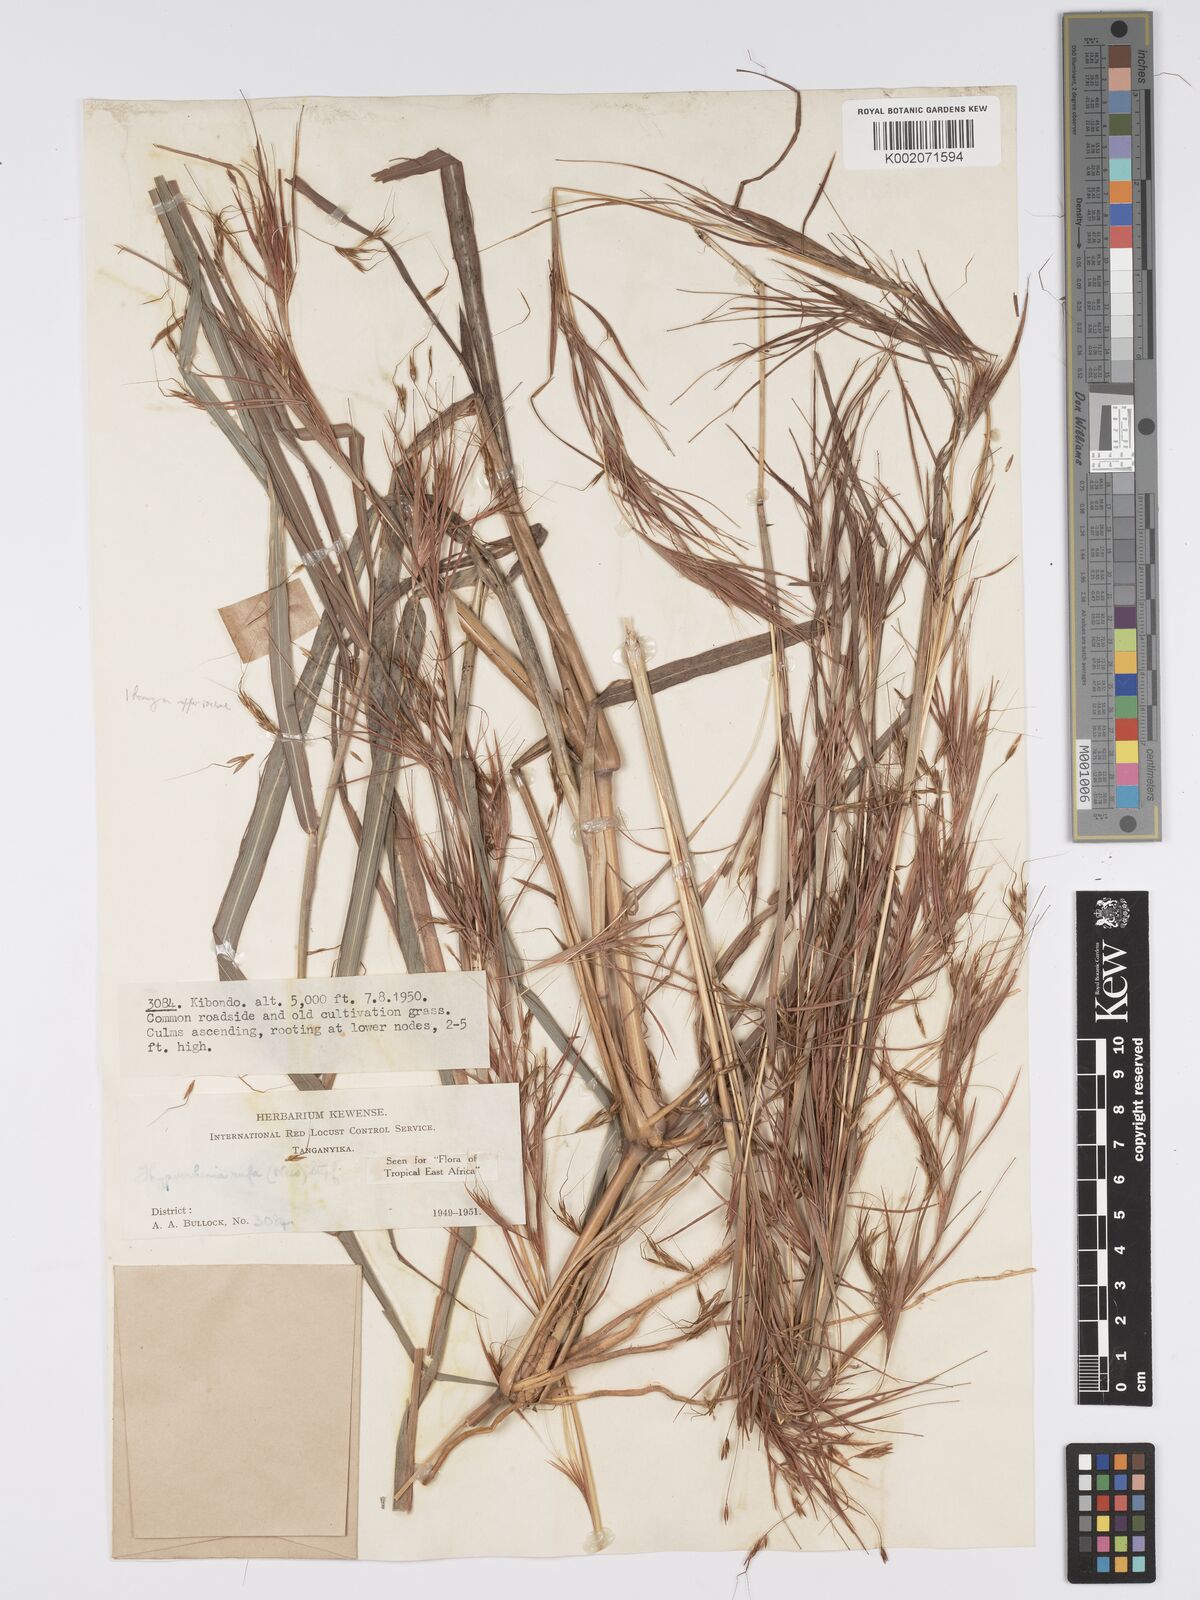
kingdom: Plantae
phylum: Tracheophyta
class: Liliopsida
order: Poales
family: Poaceae
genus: Hyparrhenia
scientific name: Hyparrhenia rufa
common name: Jaraguagrass
